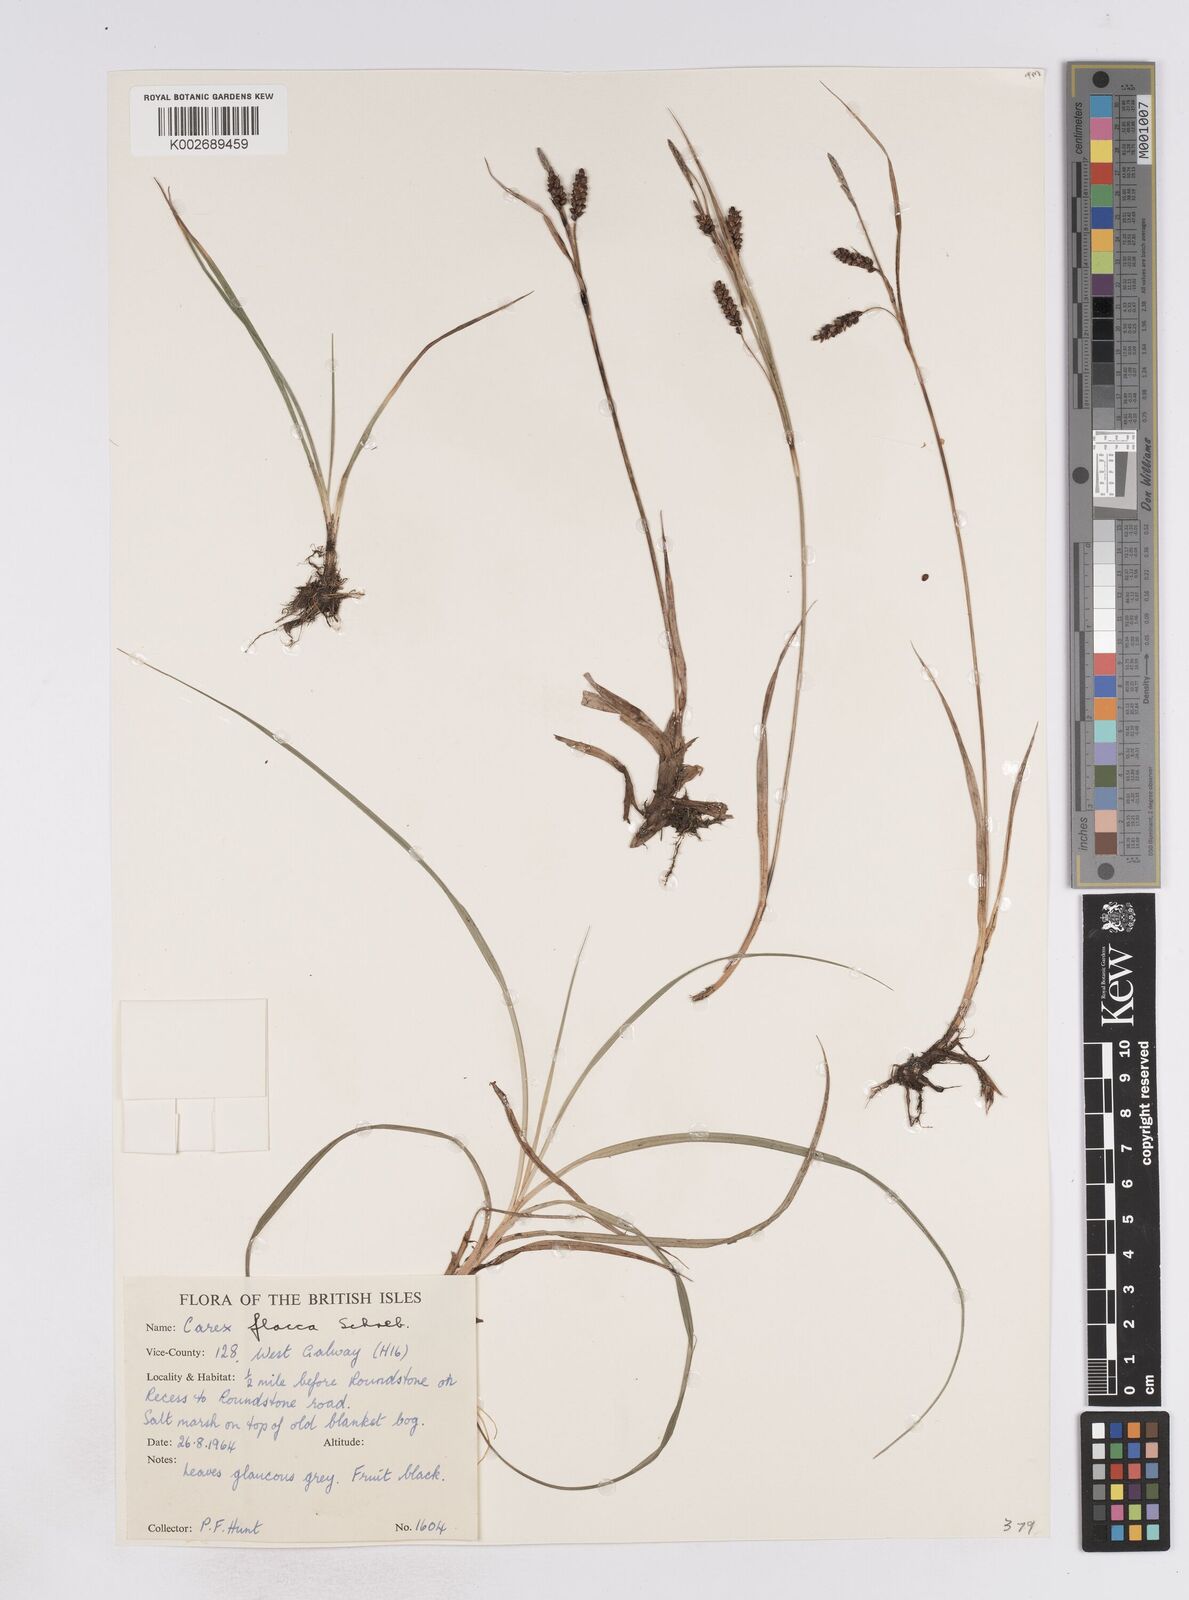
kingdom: Plantae
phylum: Tracheophyta
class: Liliopsida
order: Poales
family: Cyperaceae
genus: Carex
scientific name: Carex flacca
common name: Glaucous sedge
